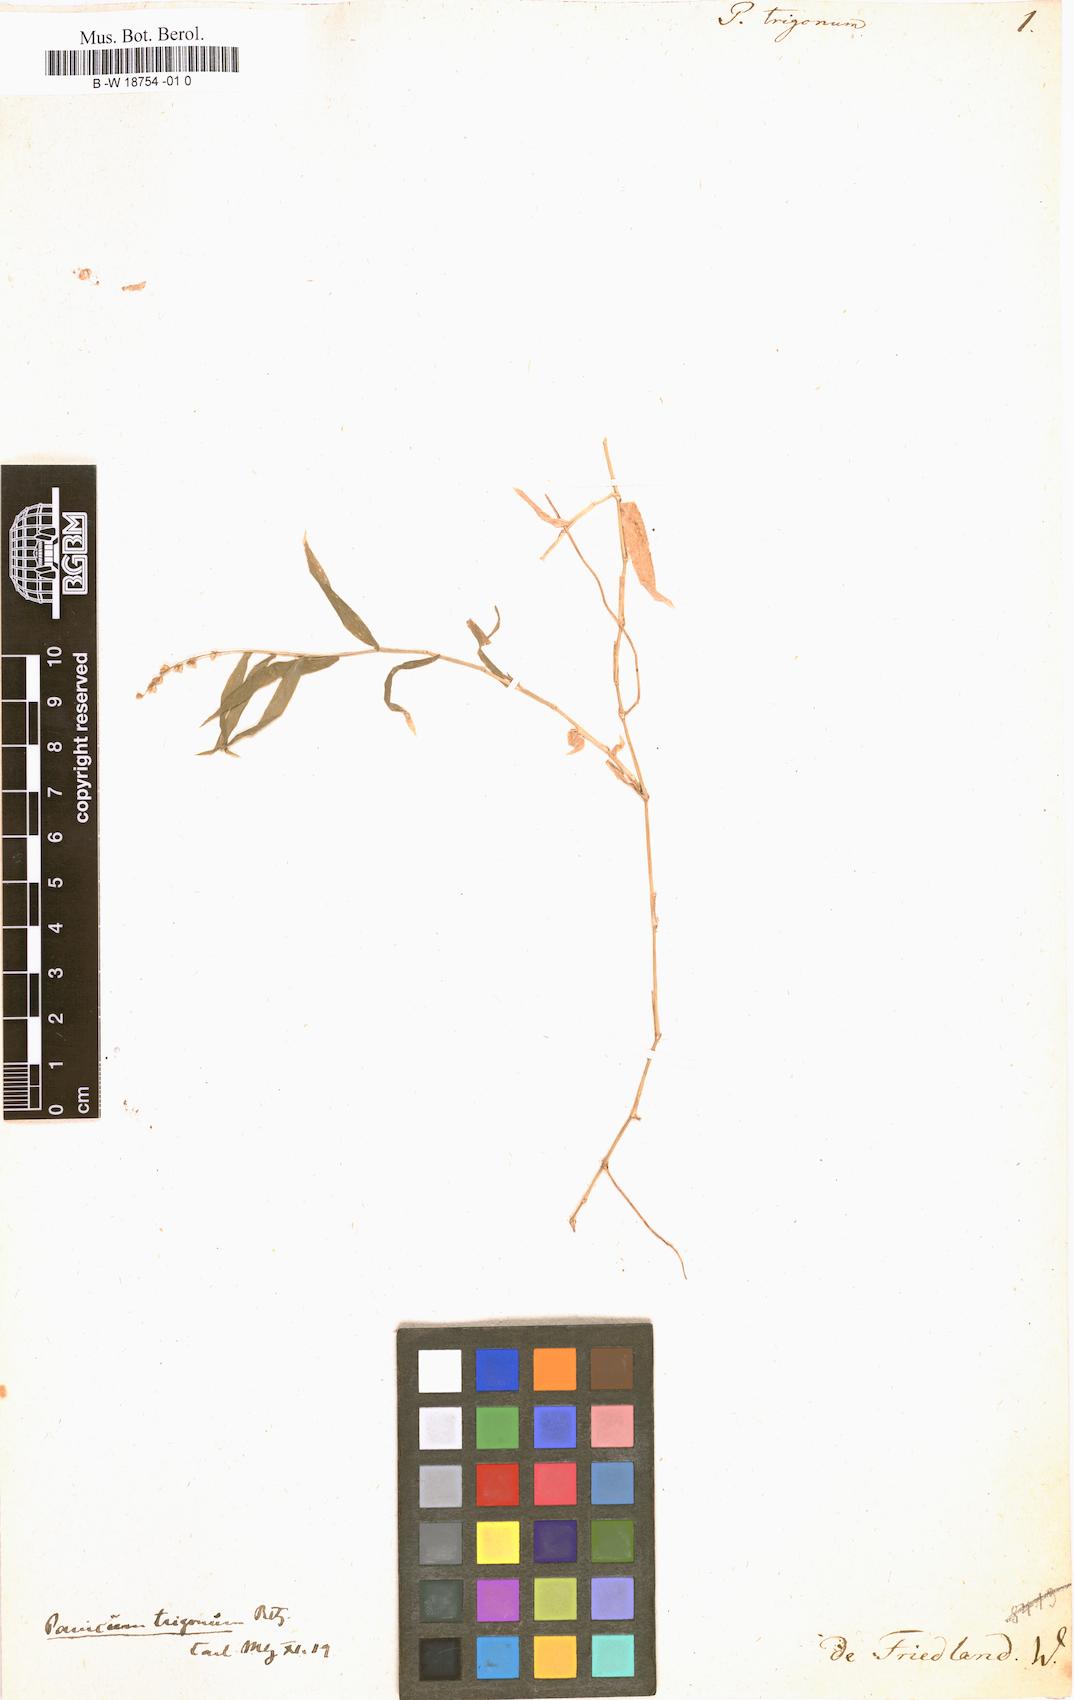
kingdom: Plantae
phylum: Tracheophyta
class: Liliopsida
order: Poales
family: Poaceae
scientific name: Poaceae
